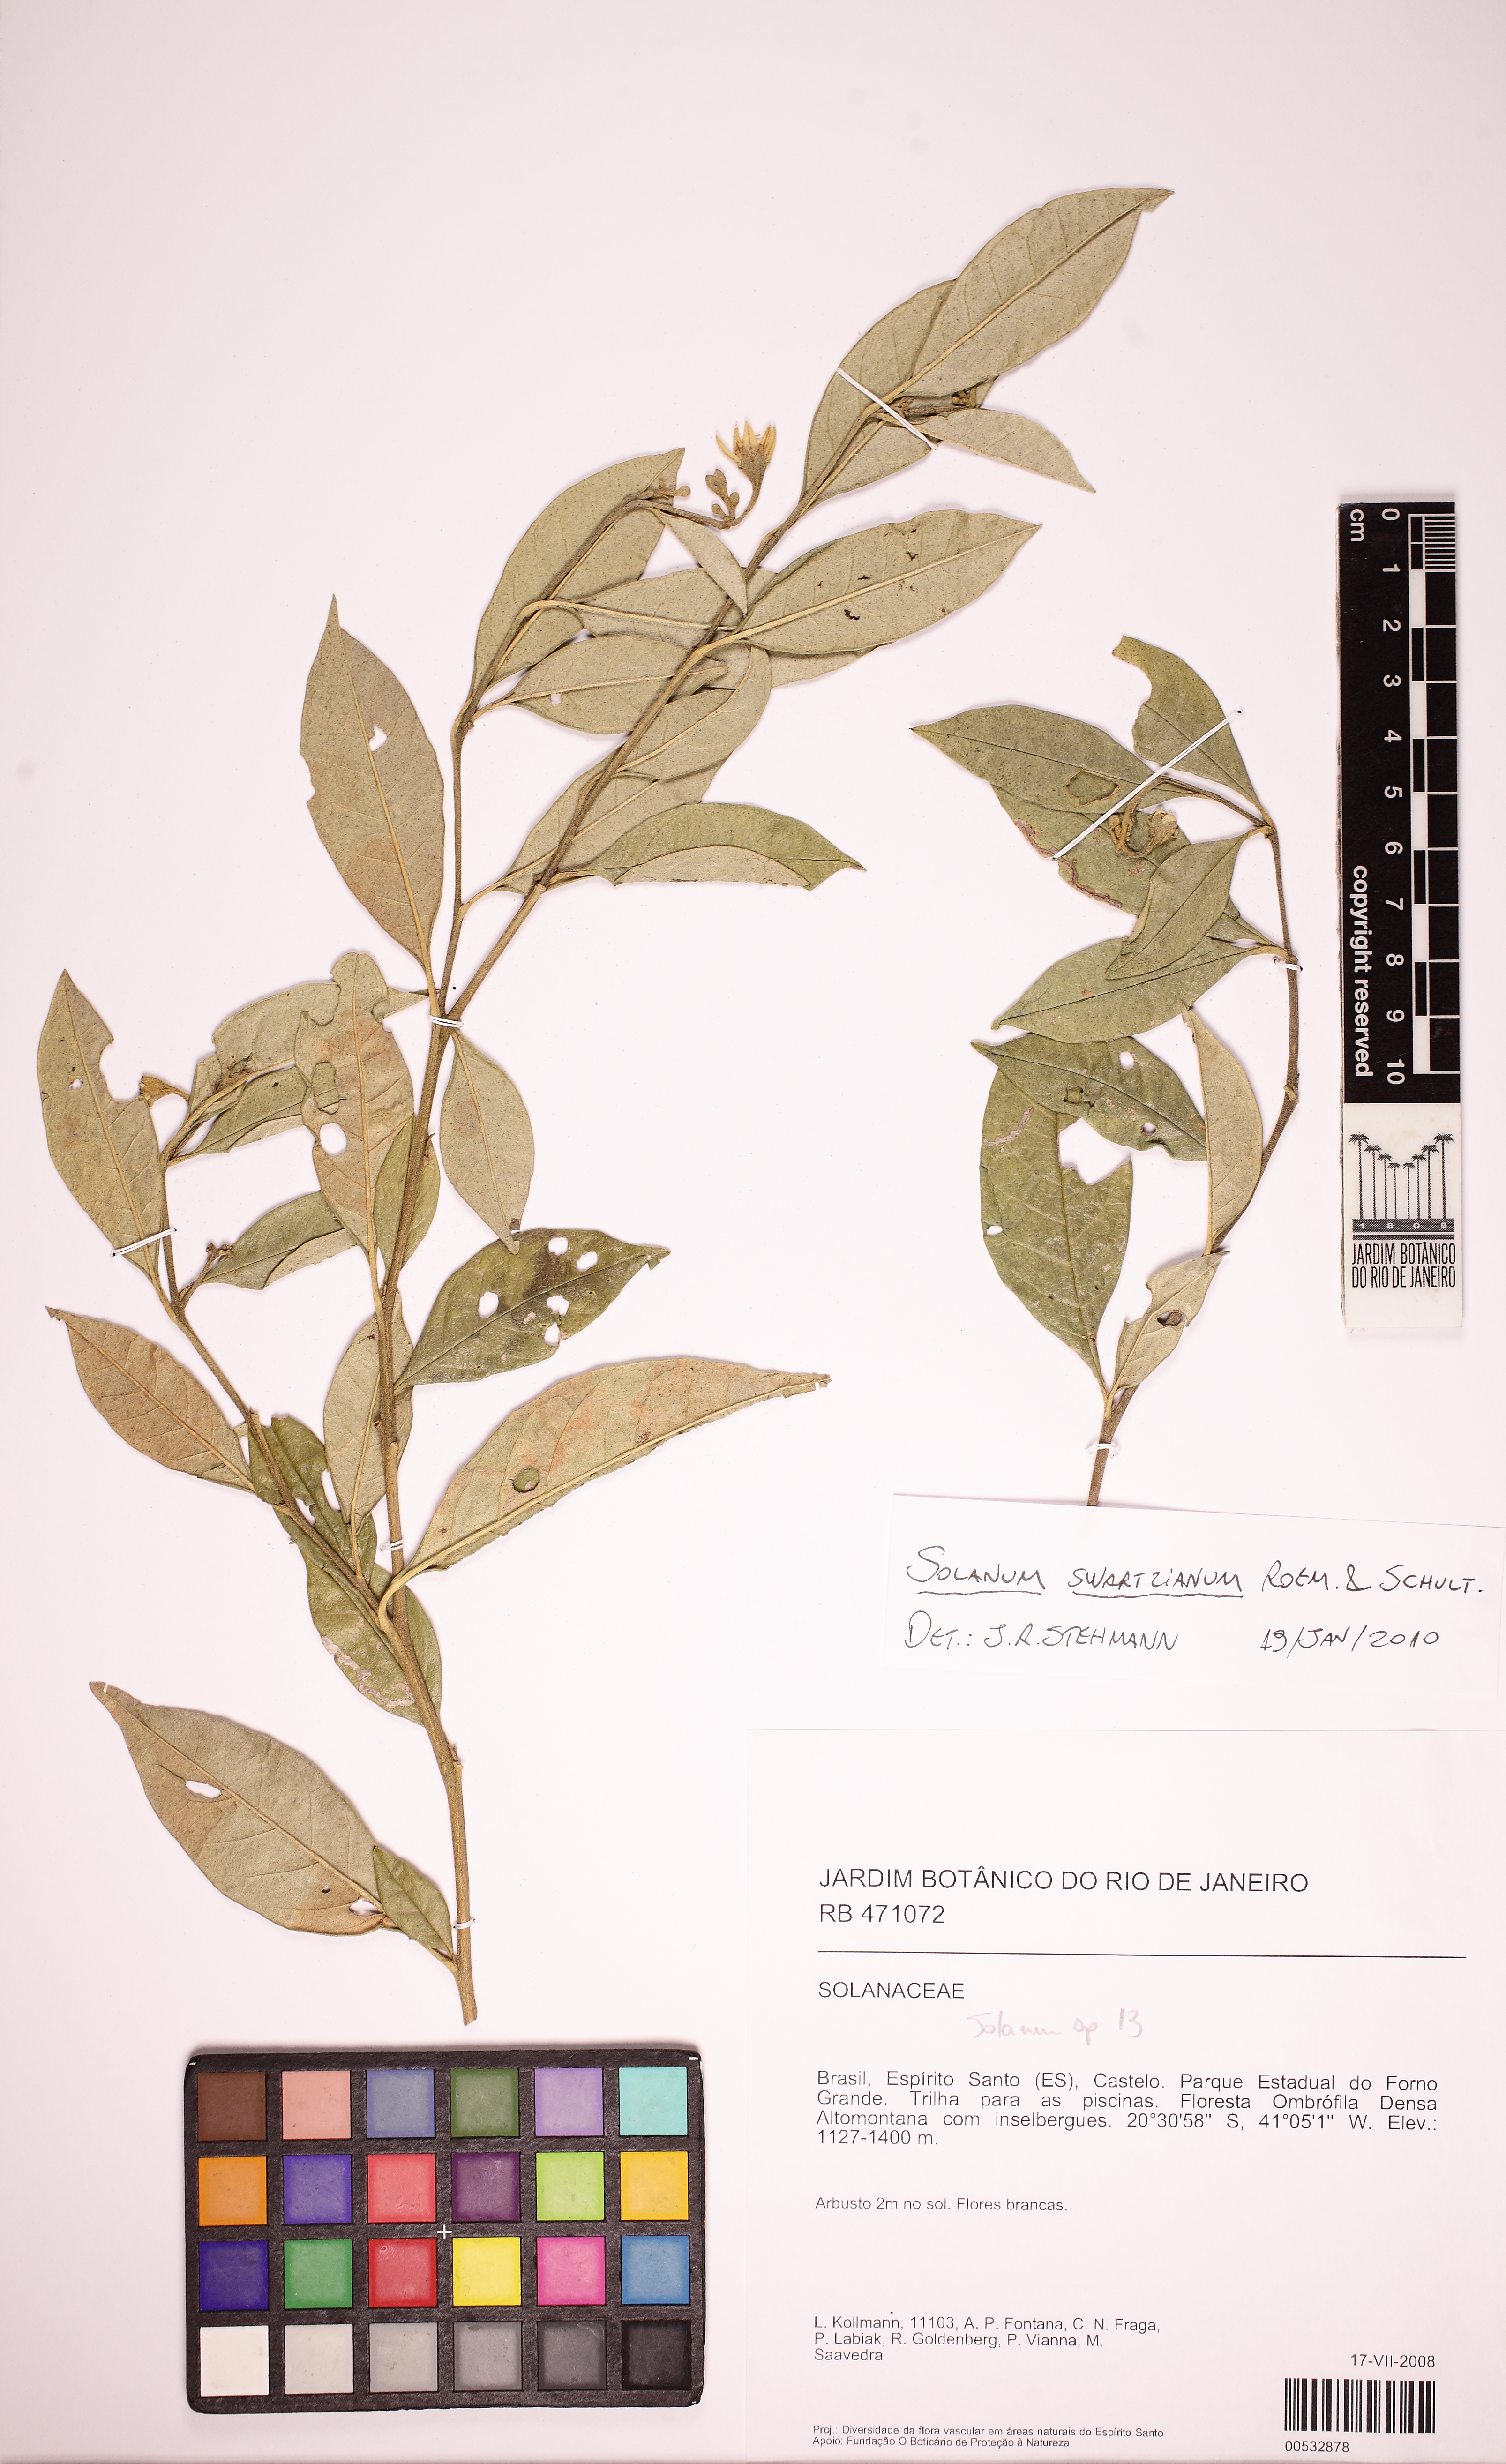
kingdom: Plantae
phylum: Tracheophyta
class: Magnoliopsida
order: Solanales
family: Solanaceae
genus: Solanum
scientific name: Solanum swartzianum
